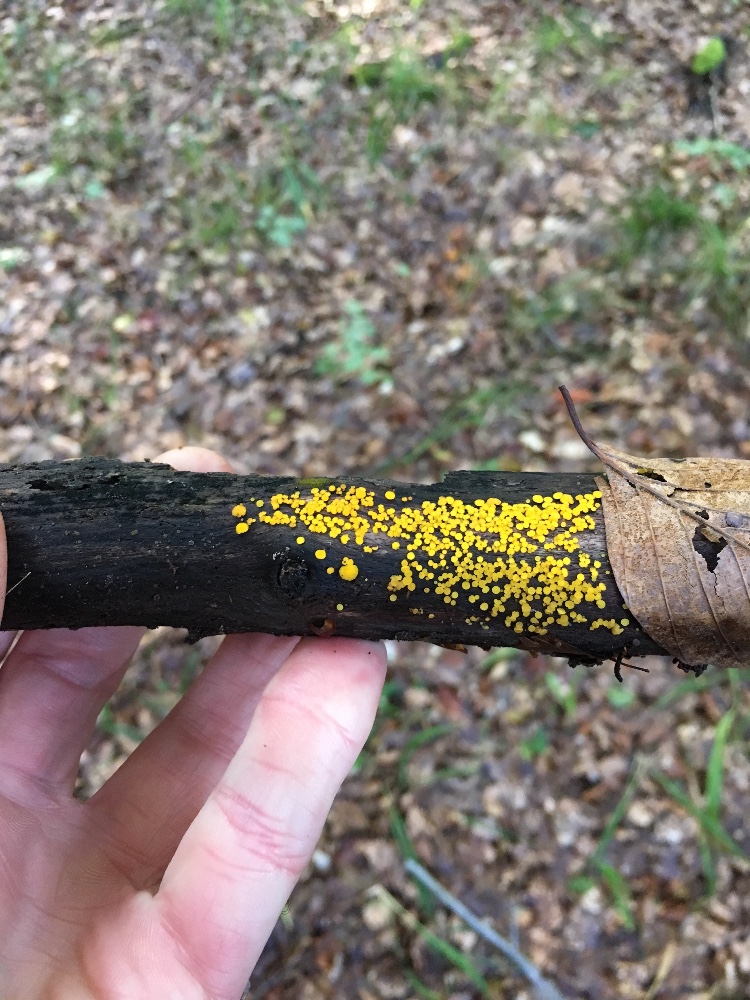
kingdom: Fungi
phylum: Ascomycota
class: Leotiomycetes
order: Helotiales
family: Pezizellaceae
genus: Calycina
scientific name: Calycina citrina
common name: almindelig gulskive
